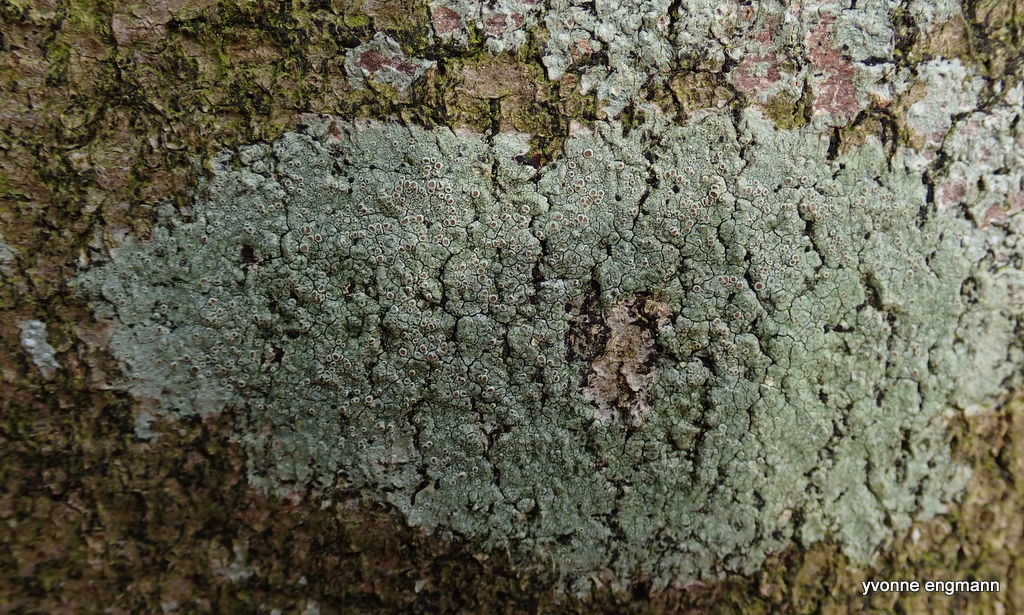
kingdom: Fungi
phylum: Ascomycota
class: Lecanoromycetes
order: Lecanorales
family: Lecanoraceae
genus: Lecanora
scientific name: Lecanora chlarotera
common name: brun kantskivelav
